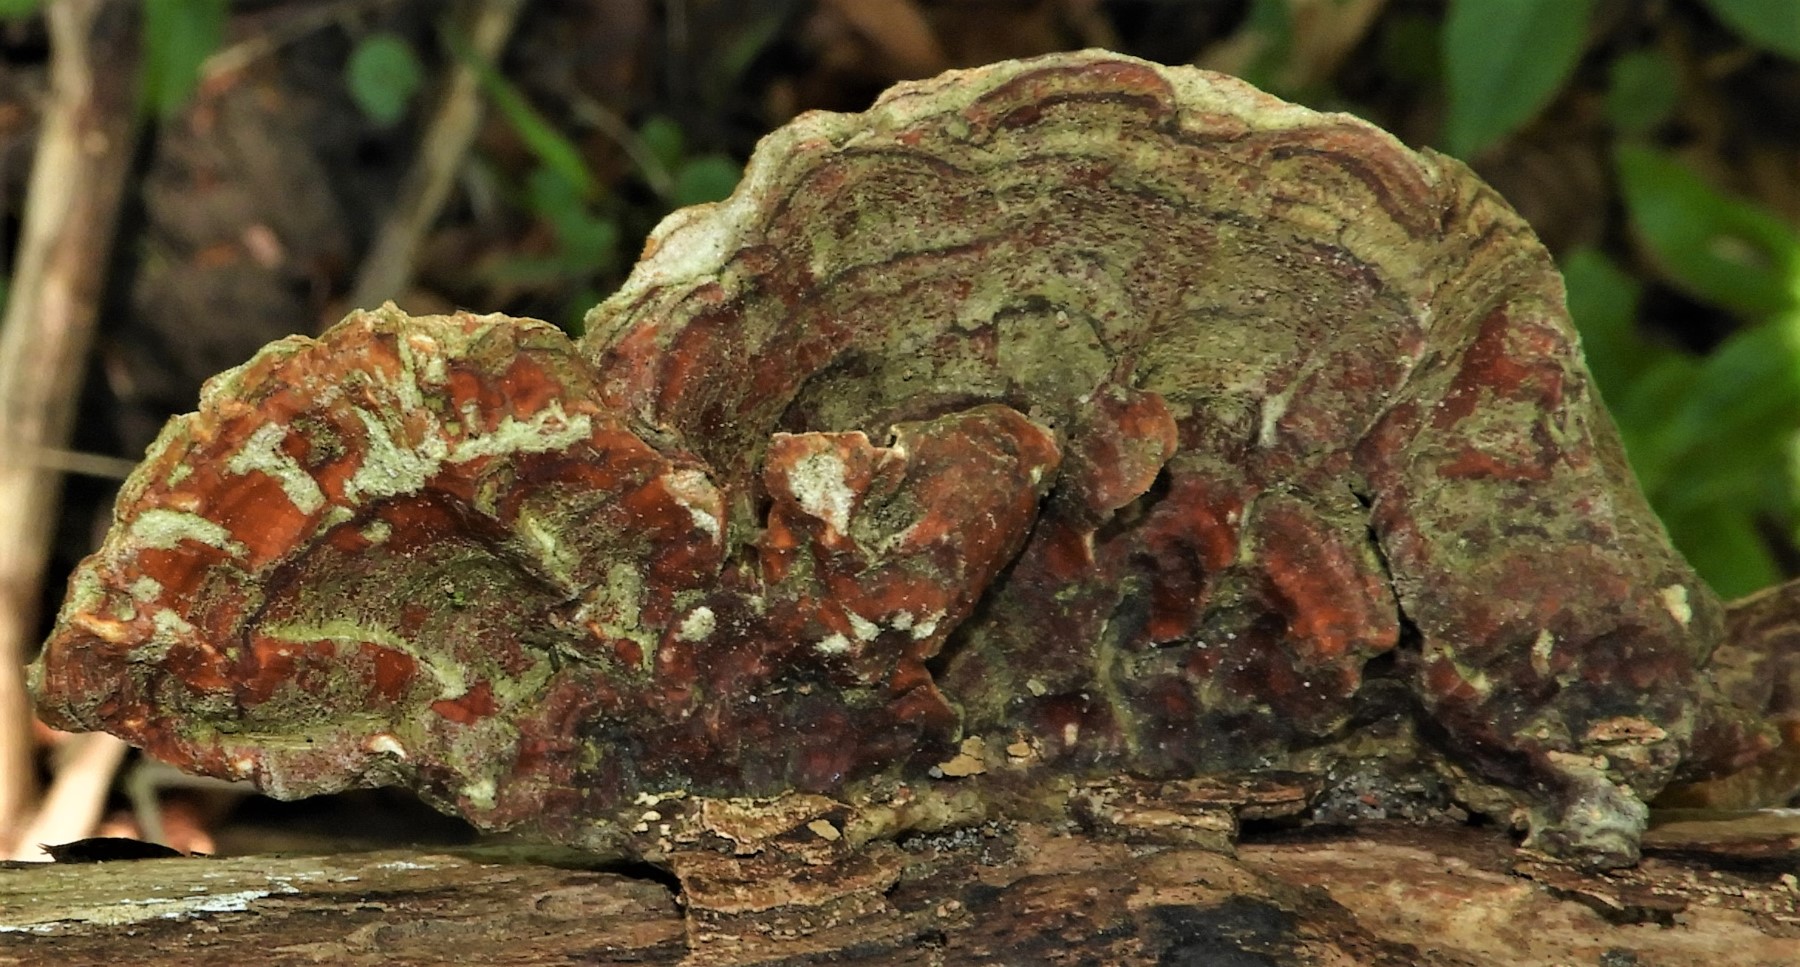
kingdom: Fungi
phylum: Basidiomycota
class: Agaricomycetes
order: Russulales
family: Stereaceae
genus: Stereum
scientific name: Stereum subtomentosum
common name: smuk lædersvamp
